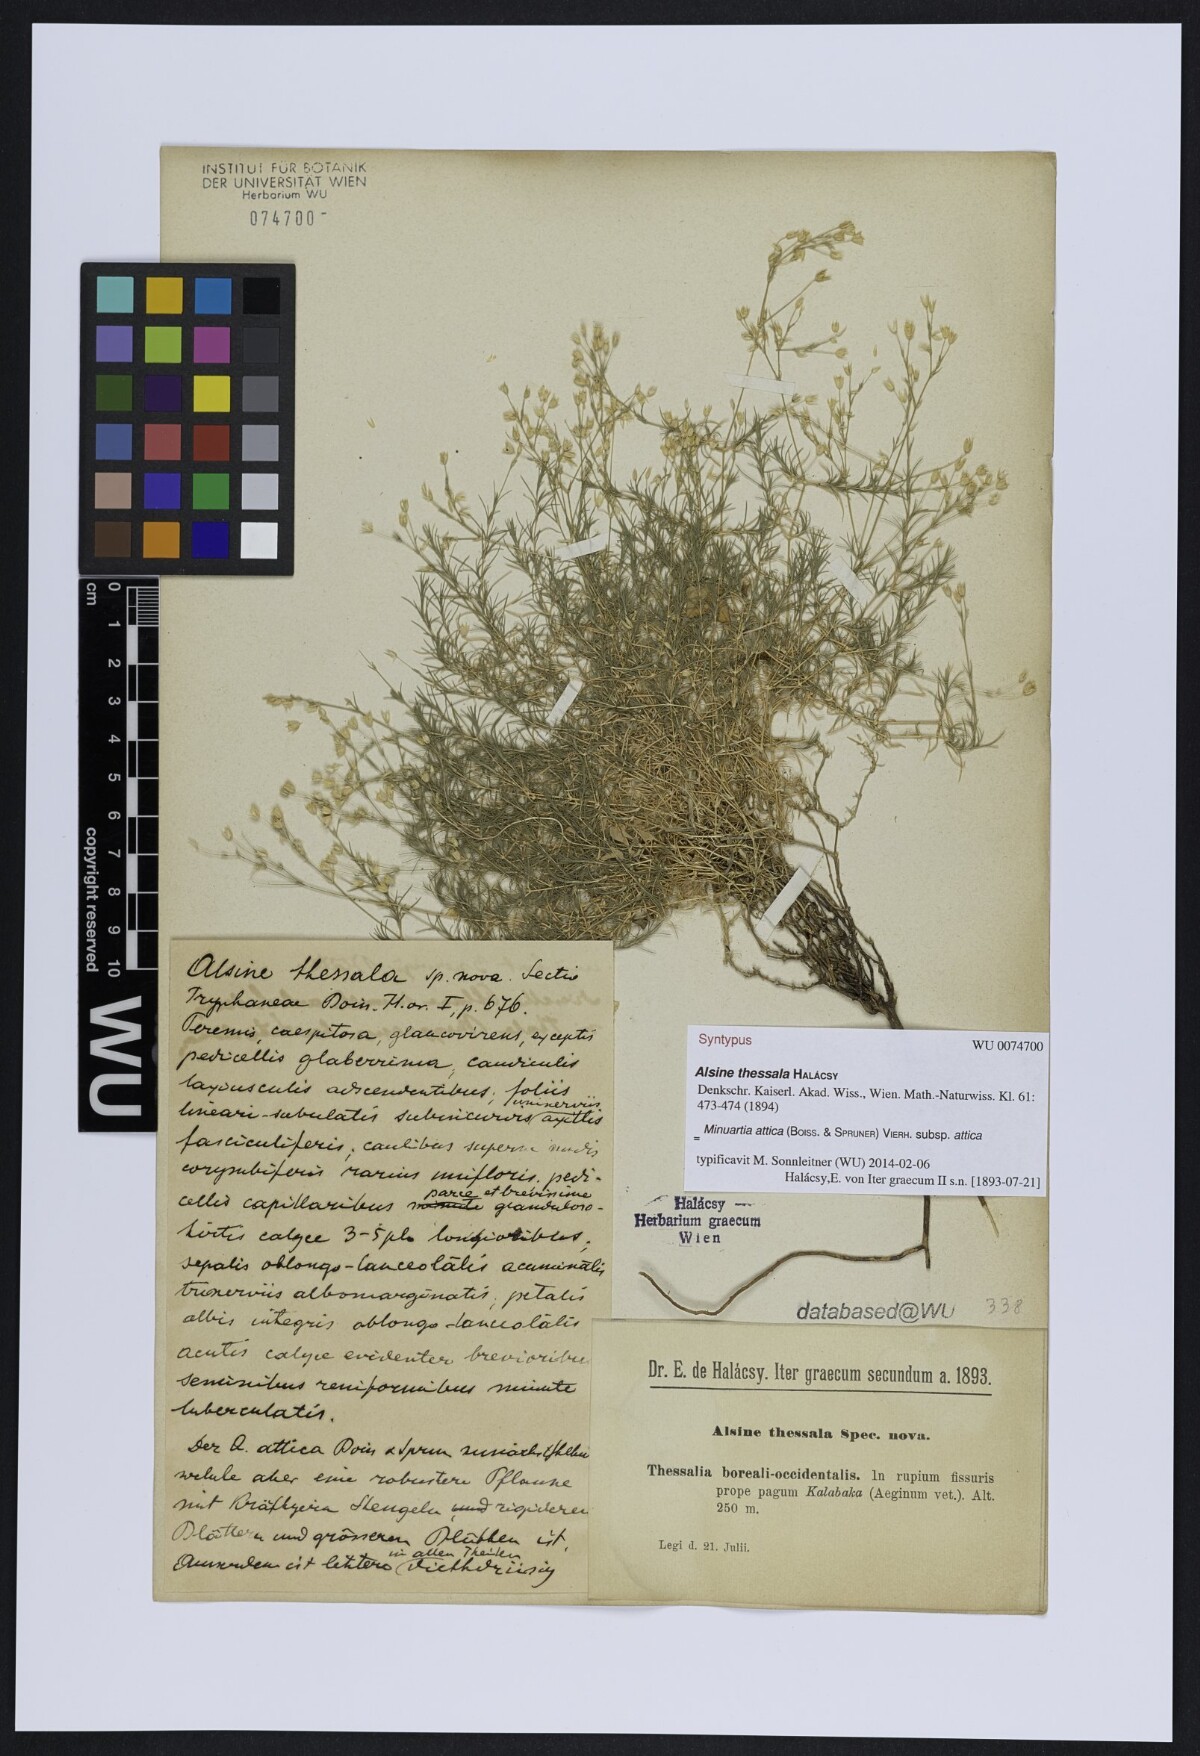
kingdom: Plantae
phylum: Tracheophyta
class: Magnoliopsida
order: Caryophyllales
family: Caryophyllaceae
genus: Sabulina
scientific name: Sabulina attica
